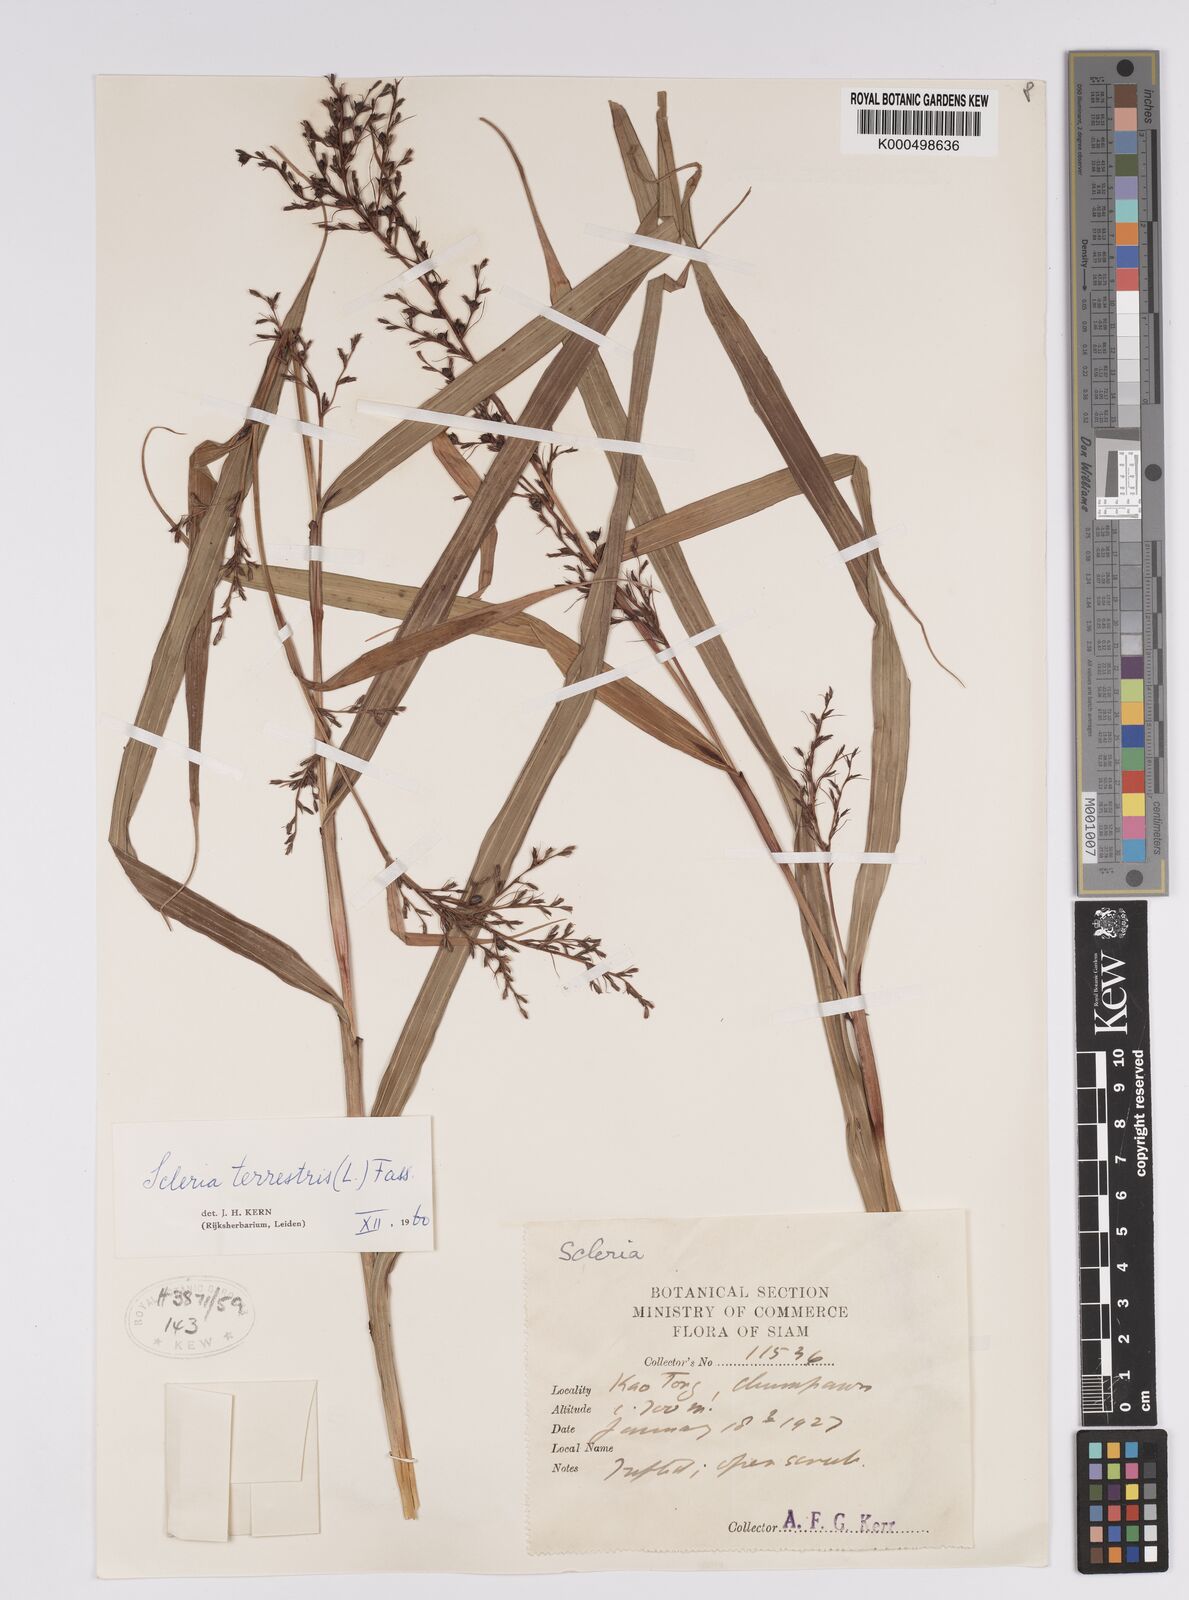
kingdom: Plantae
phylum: Tracheophyta
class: Liliopsida
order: Poales
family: Cyperaceae
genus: Scleria
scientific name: Scleria terrestris
